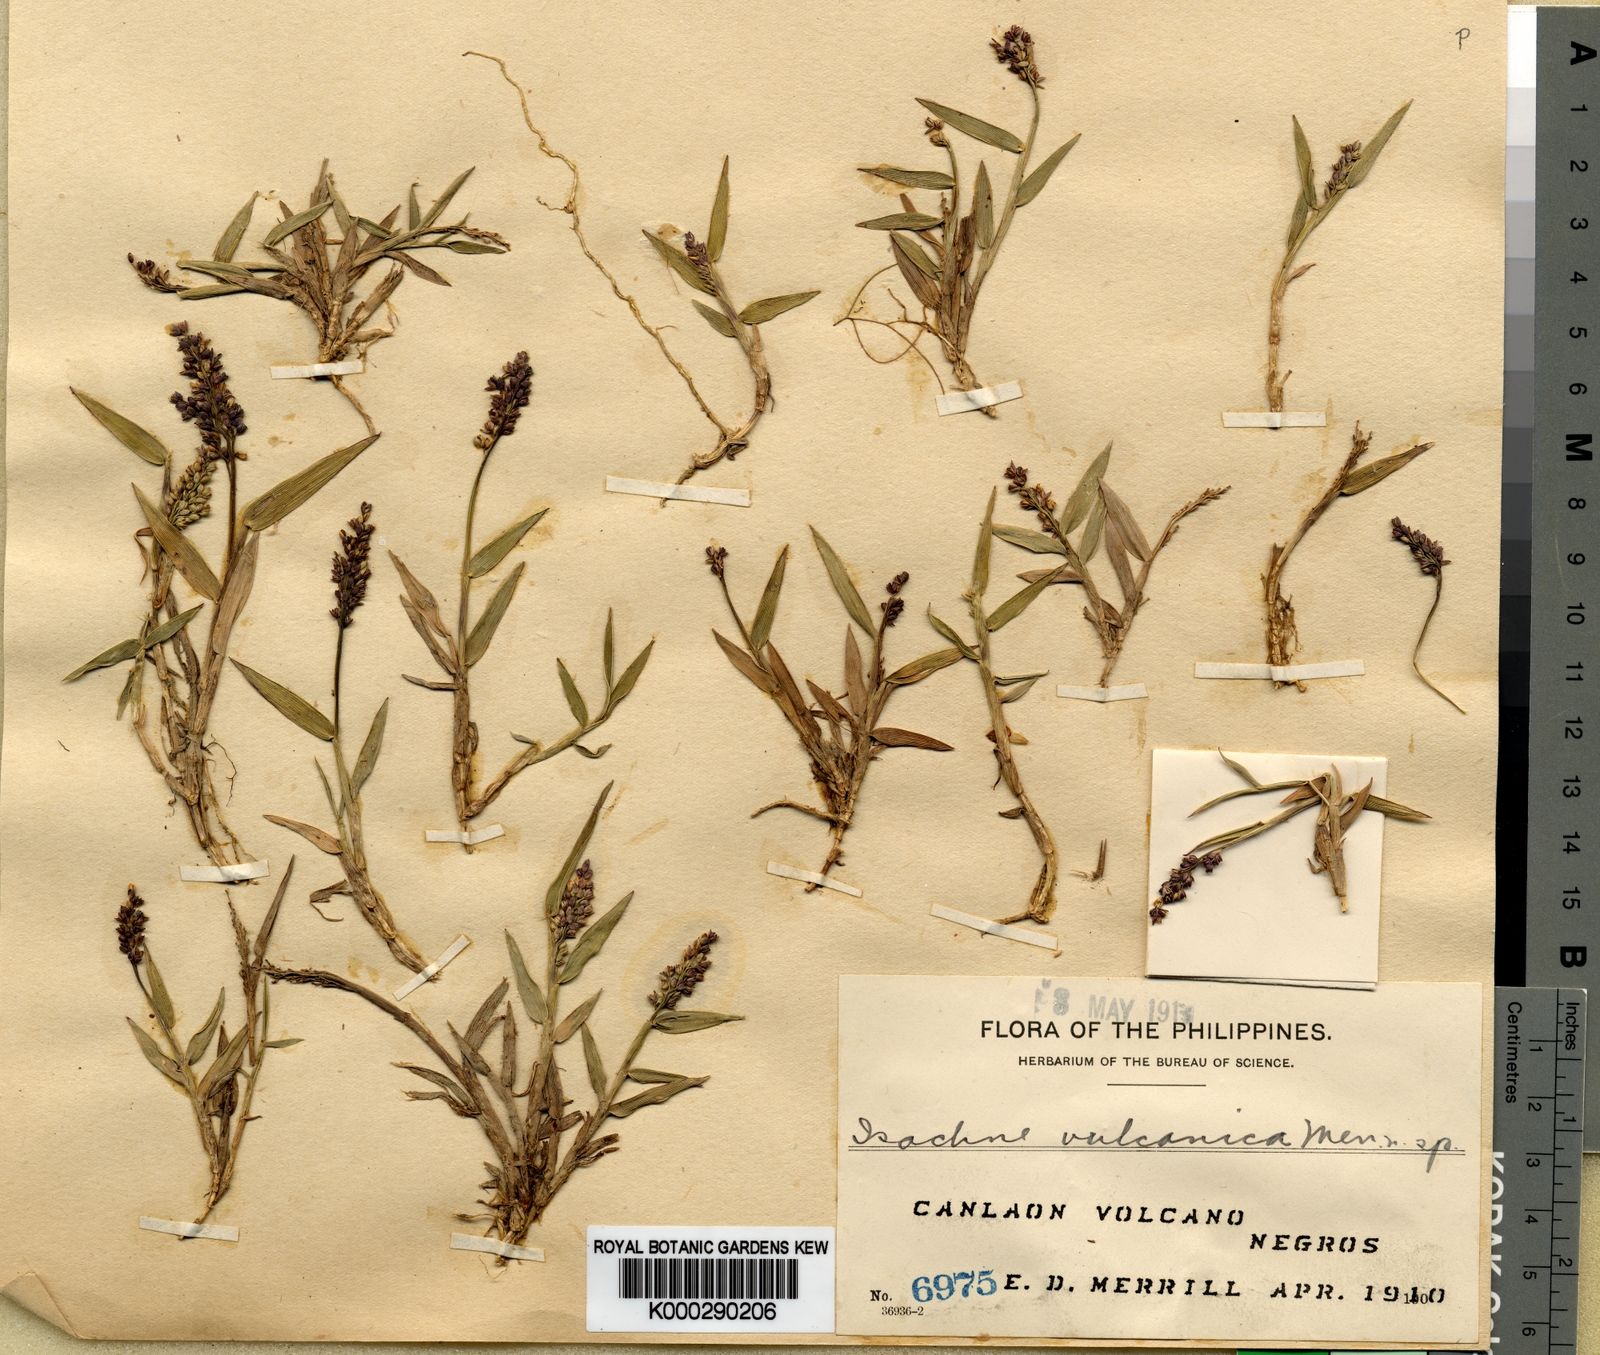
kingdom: Plantae
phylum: Tracheophyta
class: Liliopsida
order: Poales
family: Poaceae
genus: Isachne
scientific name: Isachne clementis
